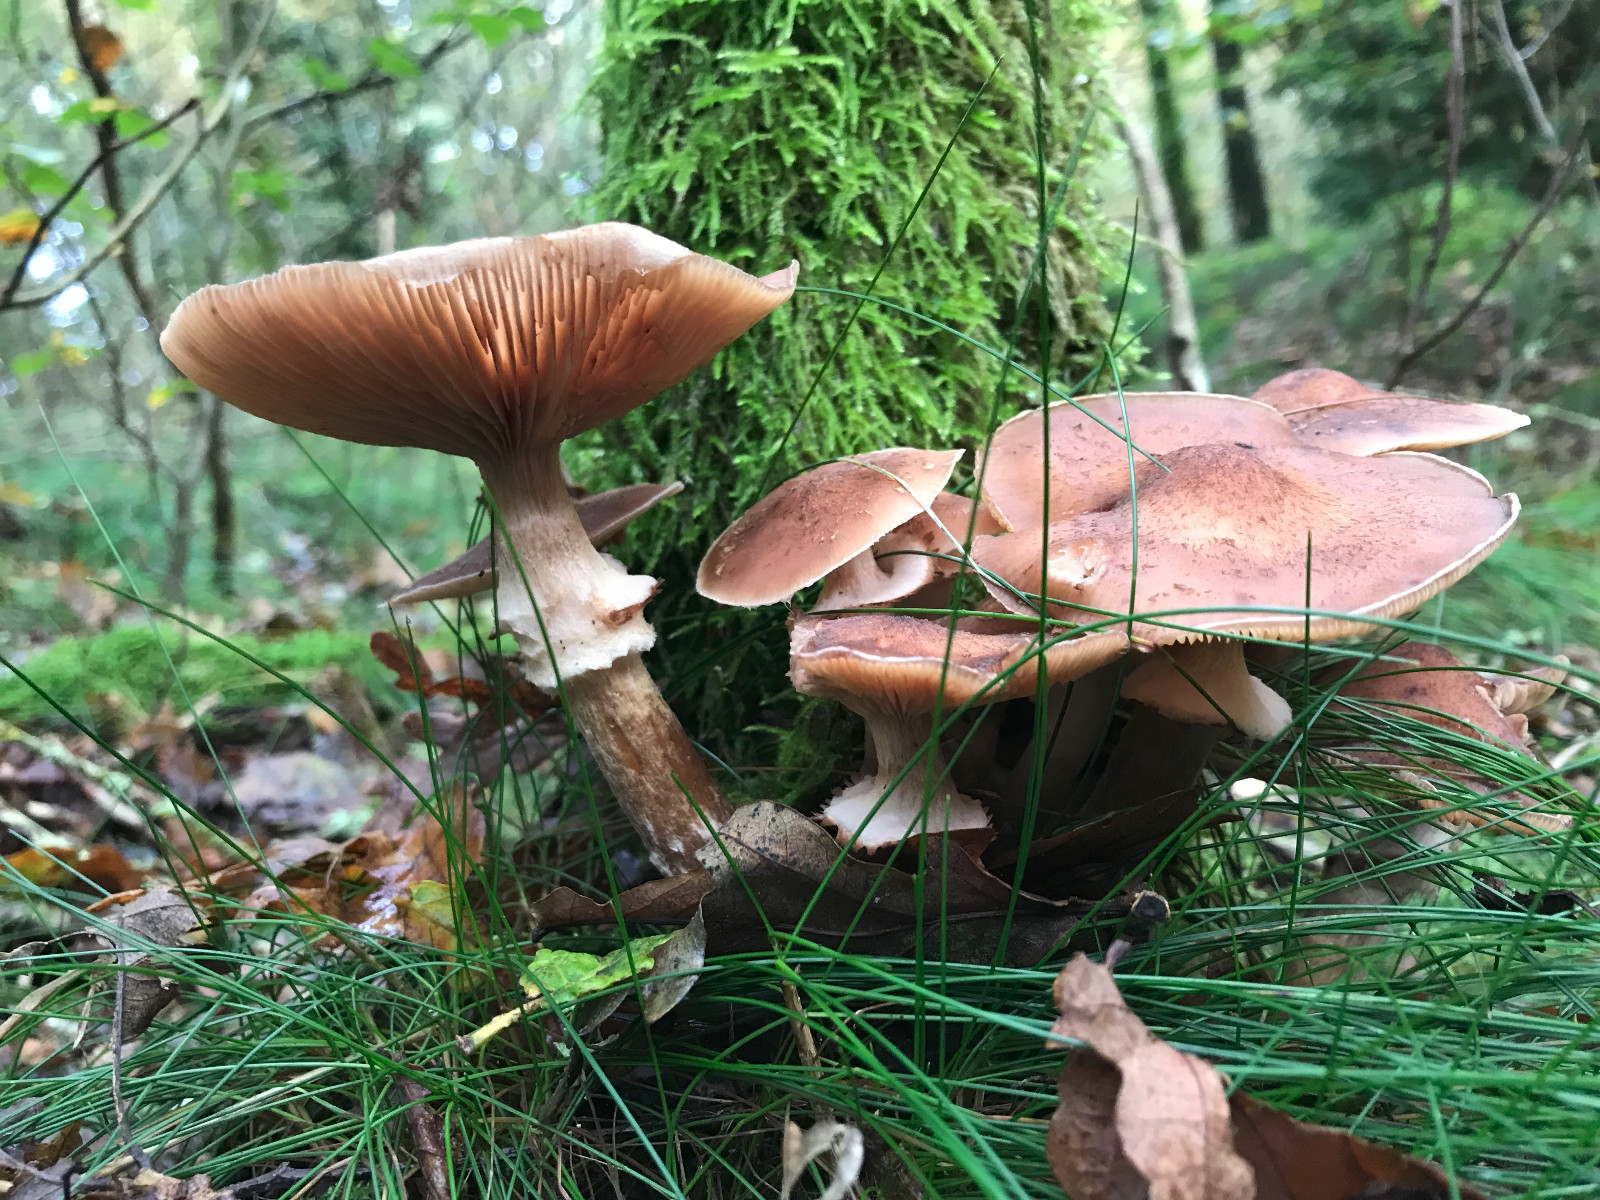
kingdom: Fungi
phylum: Basidiomycota
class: Agaricomycetes
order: Agaricales
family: Physalacriaceae
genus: Armillaria
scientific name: Armillaria ostoyae
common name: mørk honningsvamp
